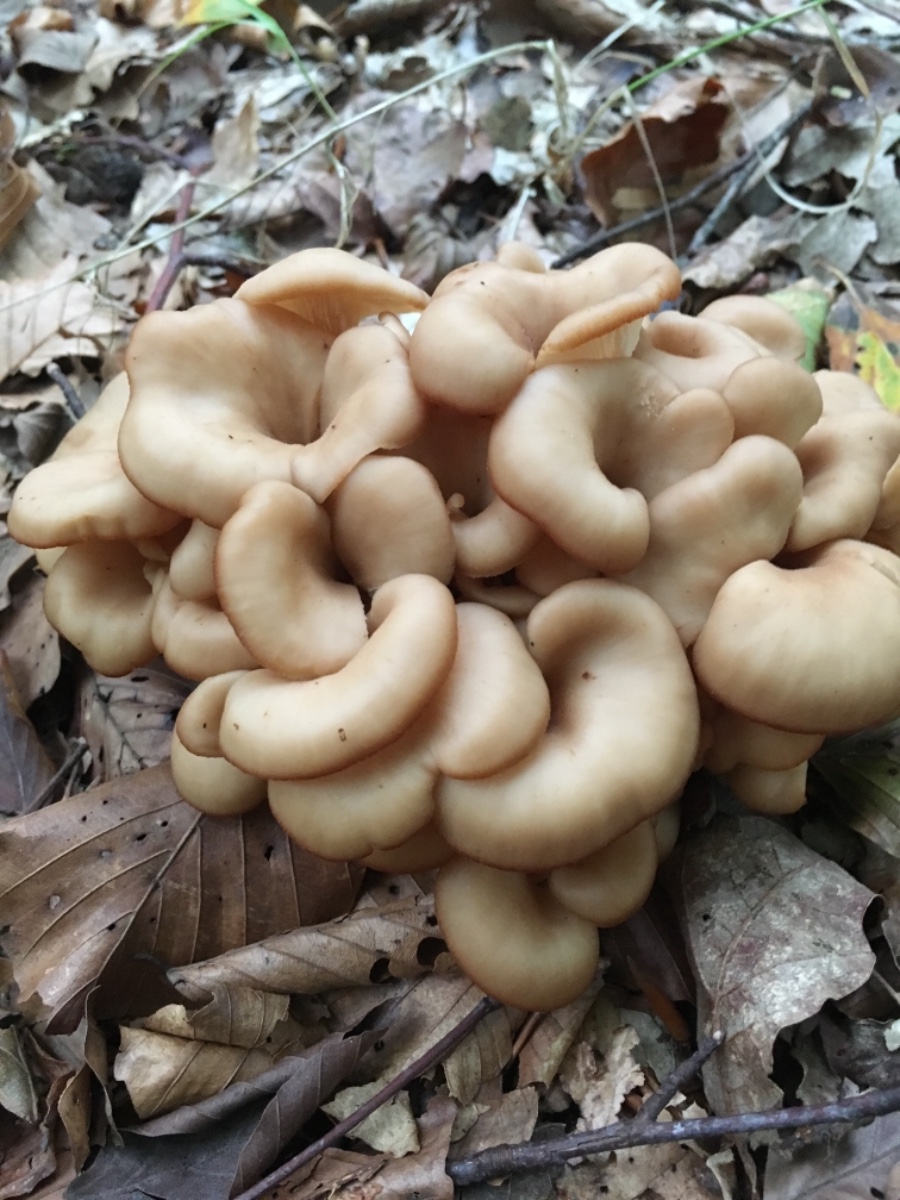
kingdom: Fungi
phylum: Basidiomycota
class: Agaricomycetes
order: Russulales
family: Auriscalpiaceae
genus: Lentinellus
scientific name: Lentinellus cochleatus
